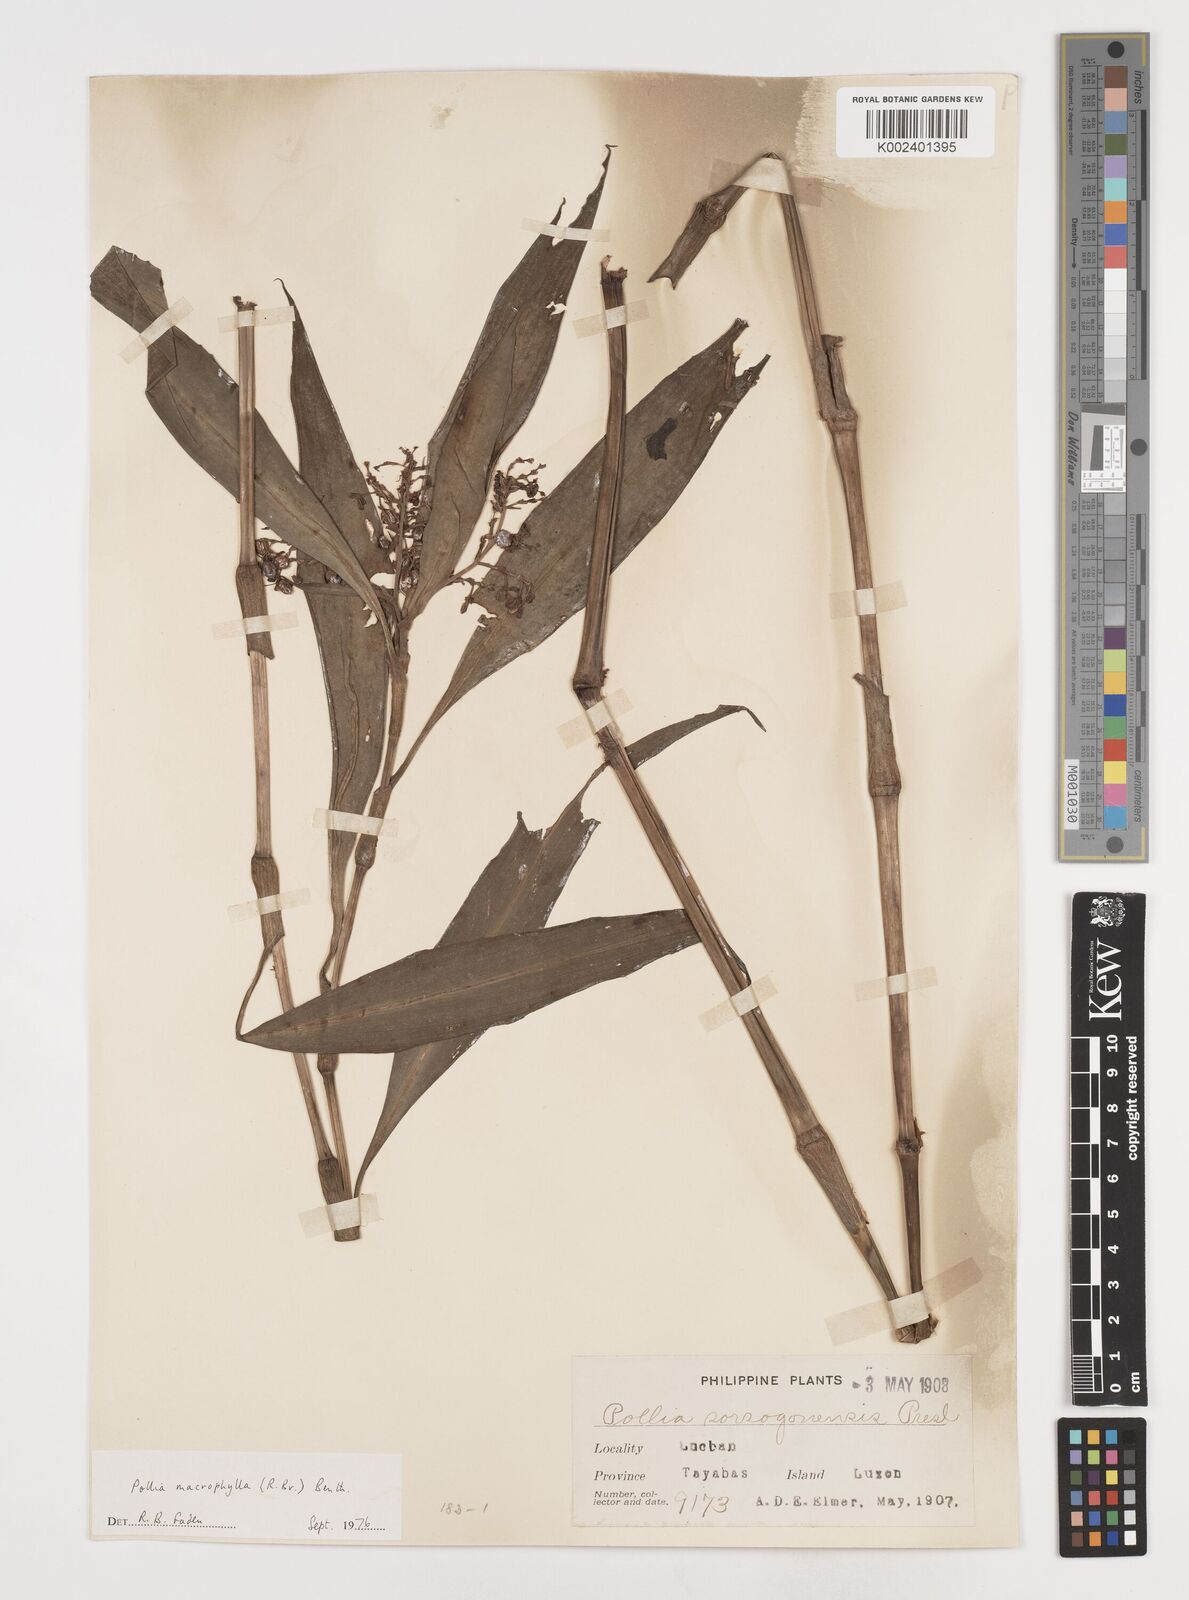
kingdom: Plantae
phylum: Tracheophyta
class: Liliopsida
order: Commelinales
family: Commelinaceae
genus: Pollia
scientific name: Pollia macrophylla
